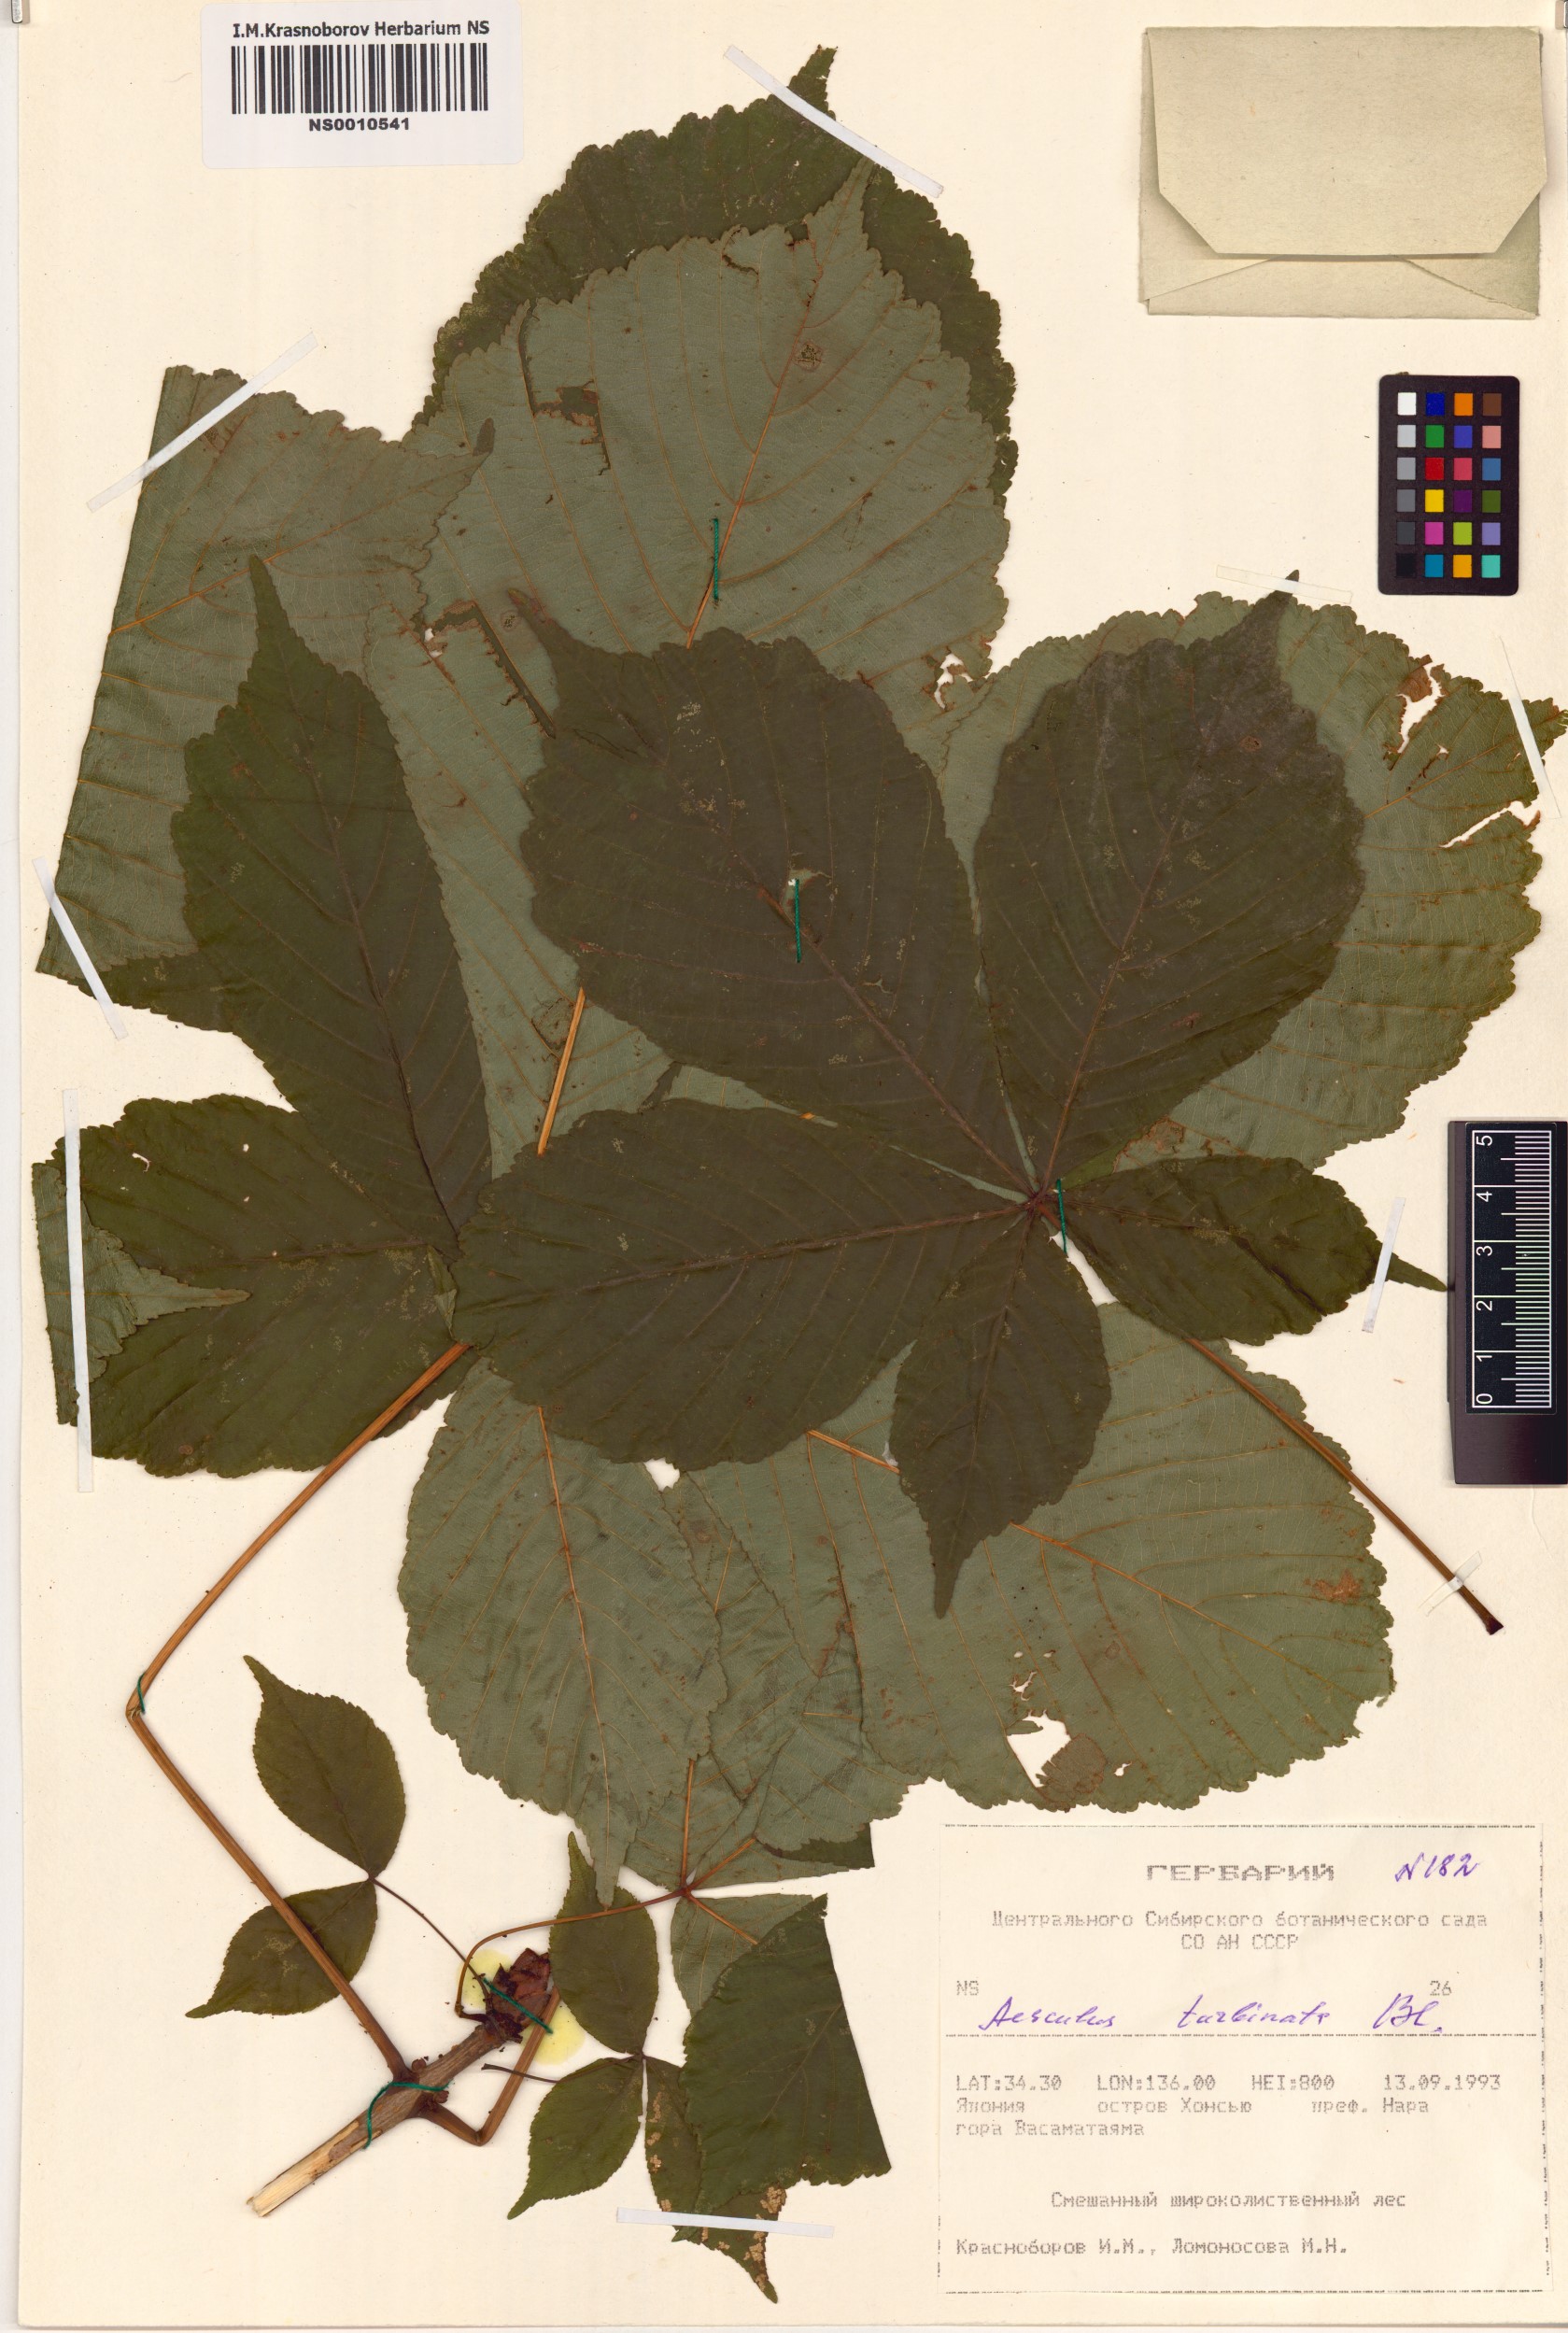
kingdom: Plantae
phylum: Tracheophyta
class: Magnoliopsida
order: Sapindales
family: Sapindaceae
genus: Aesculus
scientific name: Aesculus turbinata
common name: Japanese horse-chestnut
